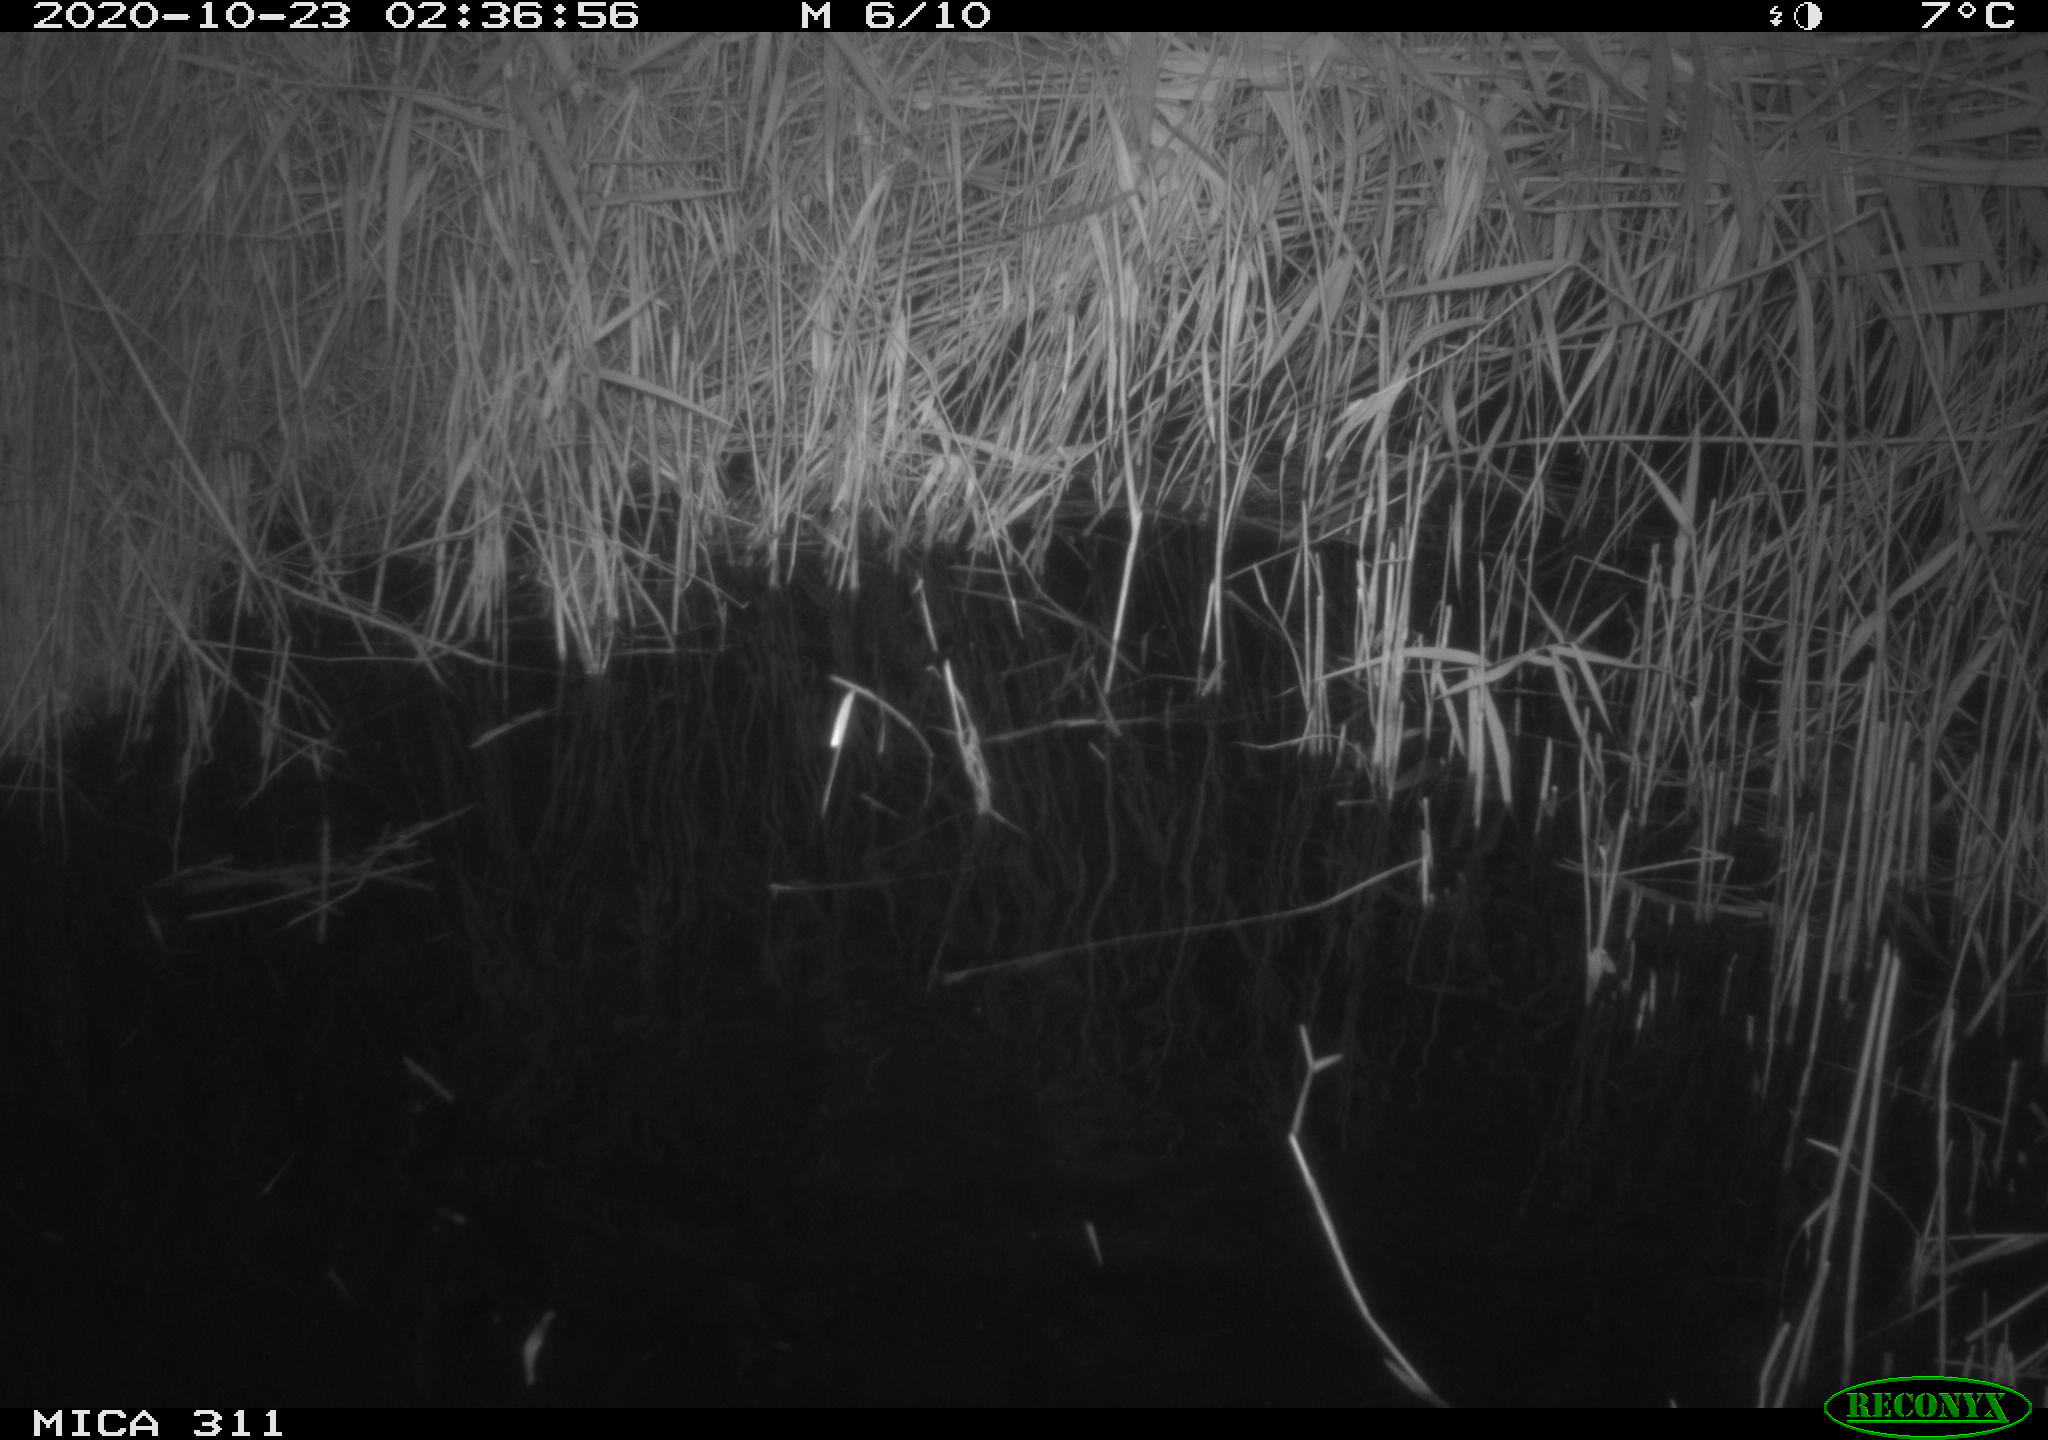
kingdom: Animalia
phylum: Chordata
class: Mammalia
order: Rodentia
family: Cricetidae
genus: Ondatra
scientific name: Ondatra zibethicus
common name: Muskrat
